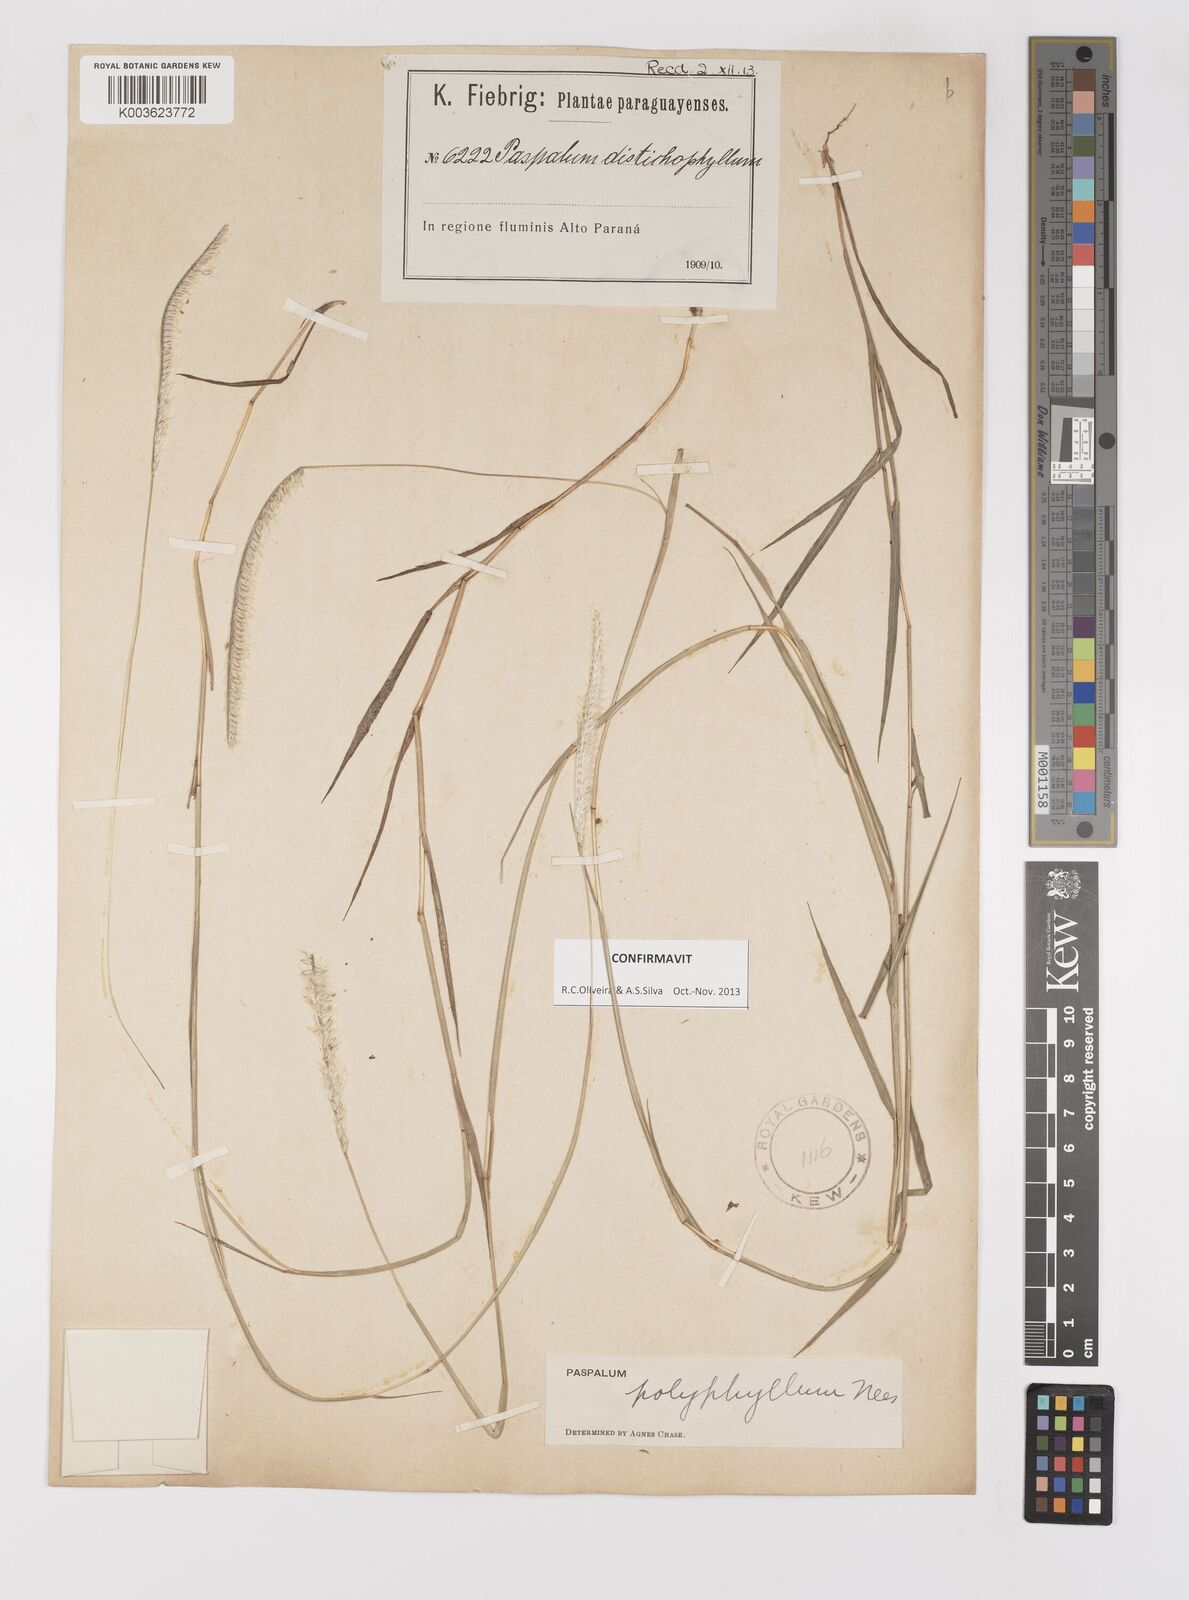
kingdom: Plantae
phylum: Tracheophyta
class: Liliopsida
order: Poales
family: Poaceae
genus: Paspalum
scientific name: Paspalum polyphyllum
